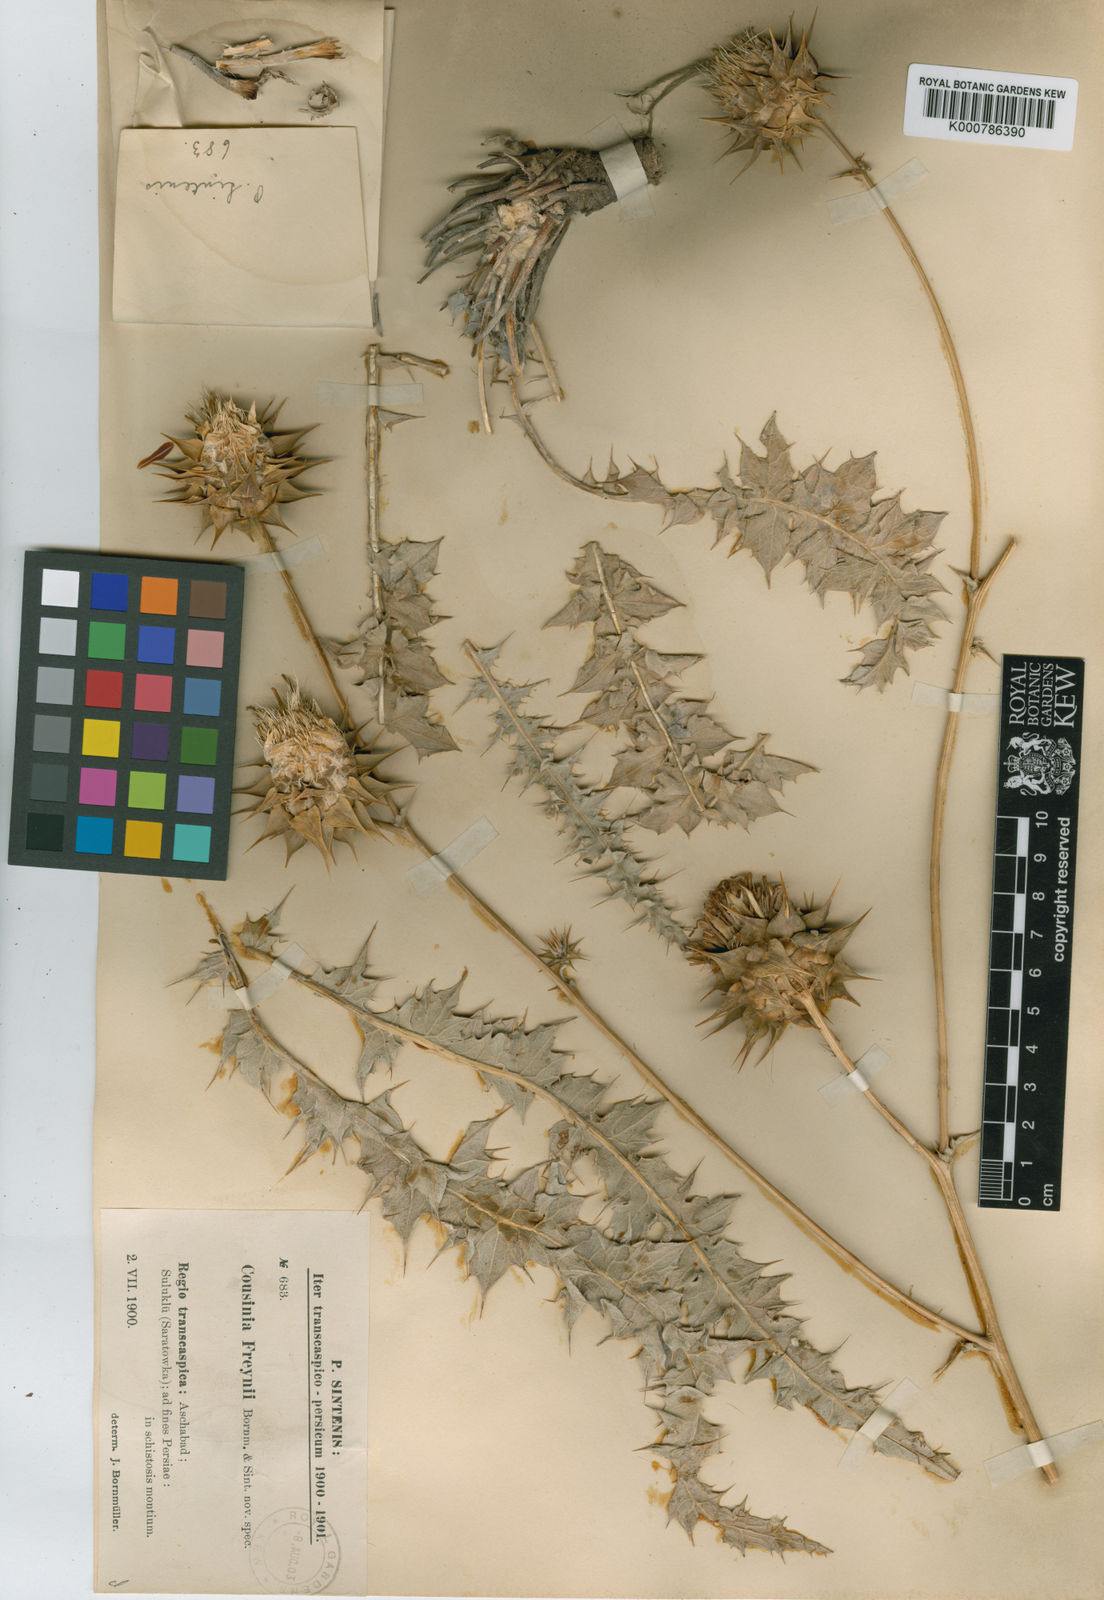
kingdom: Plantae
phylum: Tracheophyta
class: Magnoliopsida
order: Asterales
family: Asteraceae
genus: Cousinia
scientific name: Cousinia freynii
